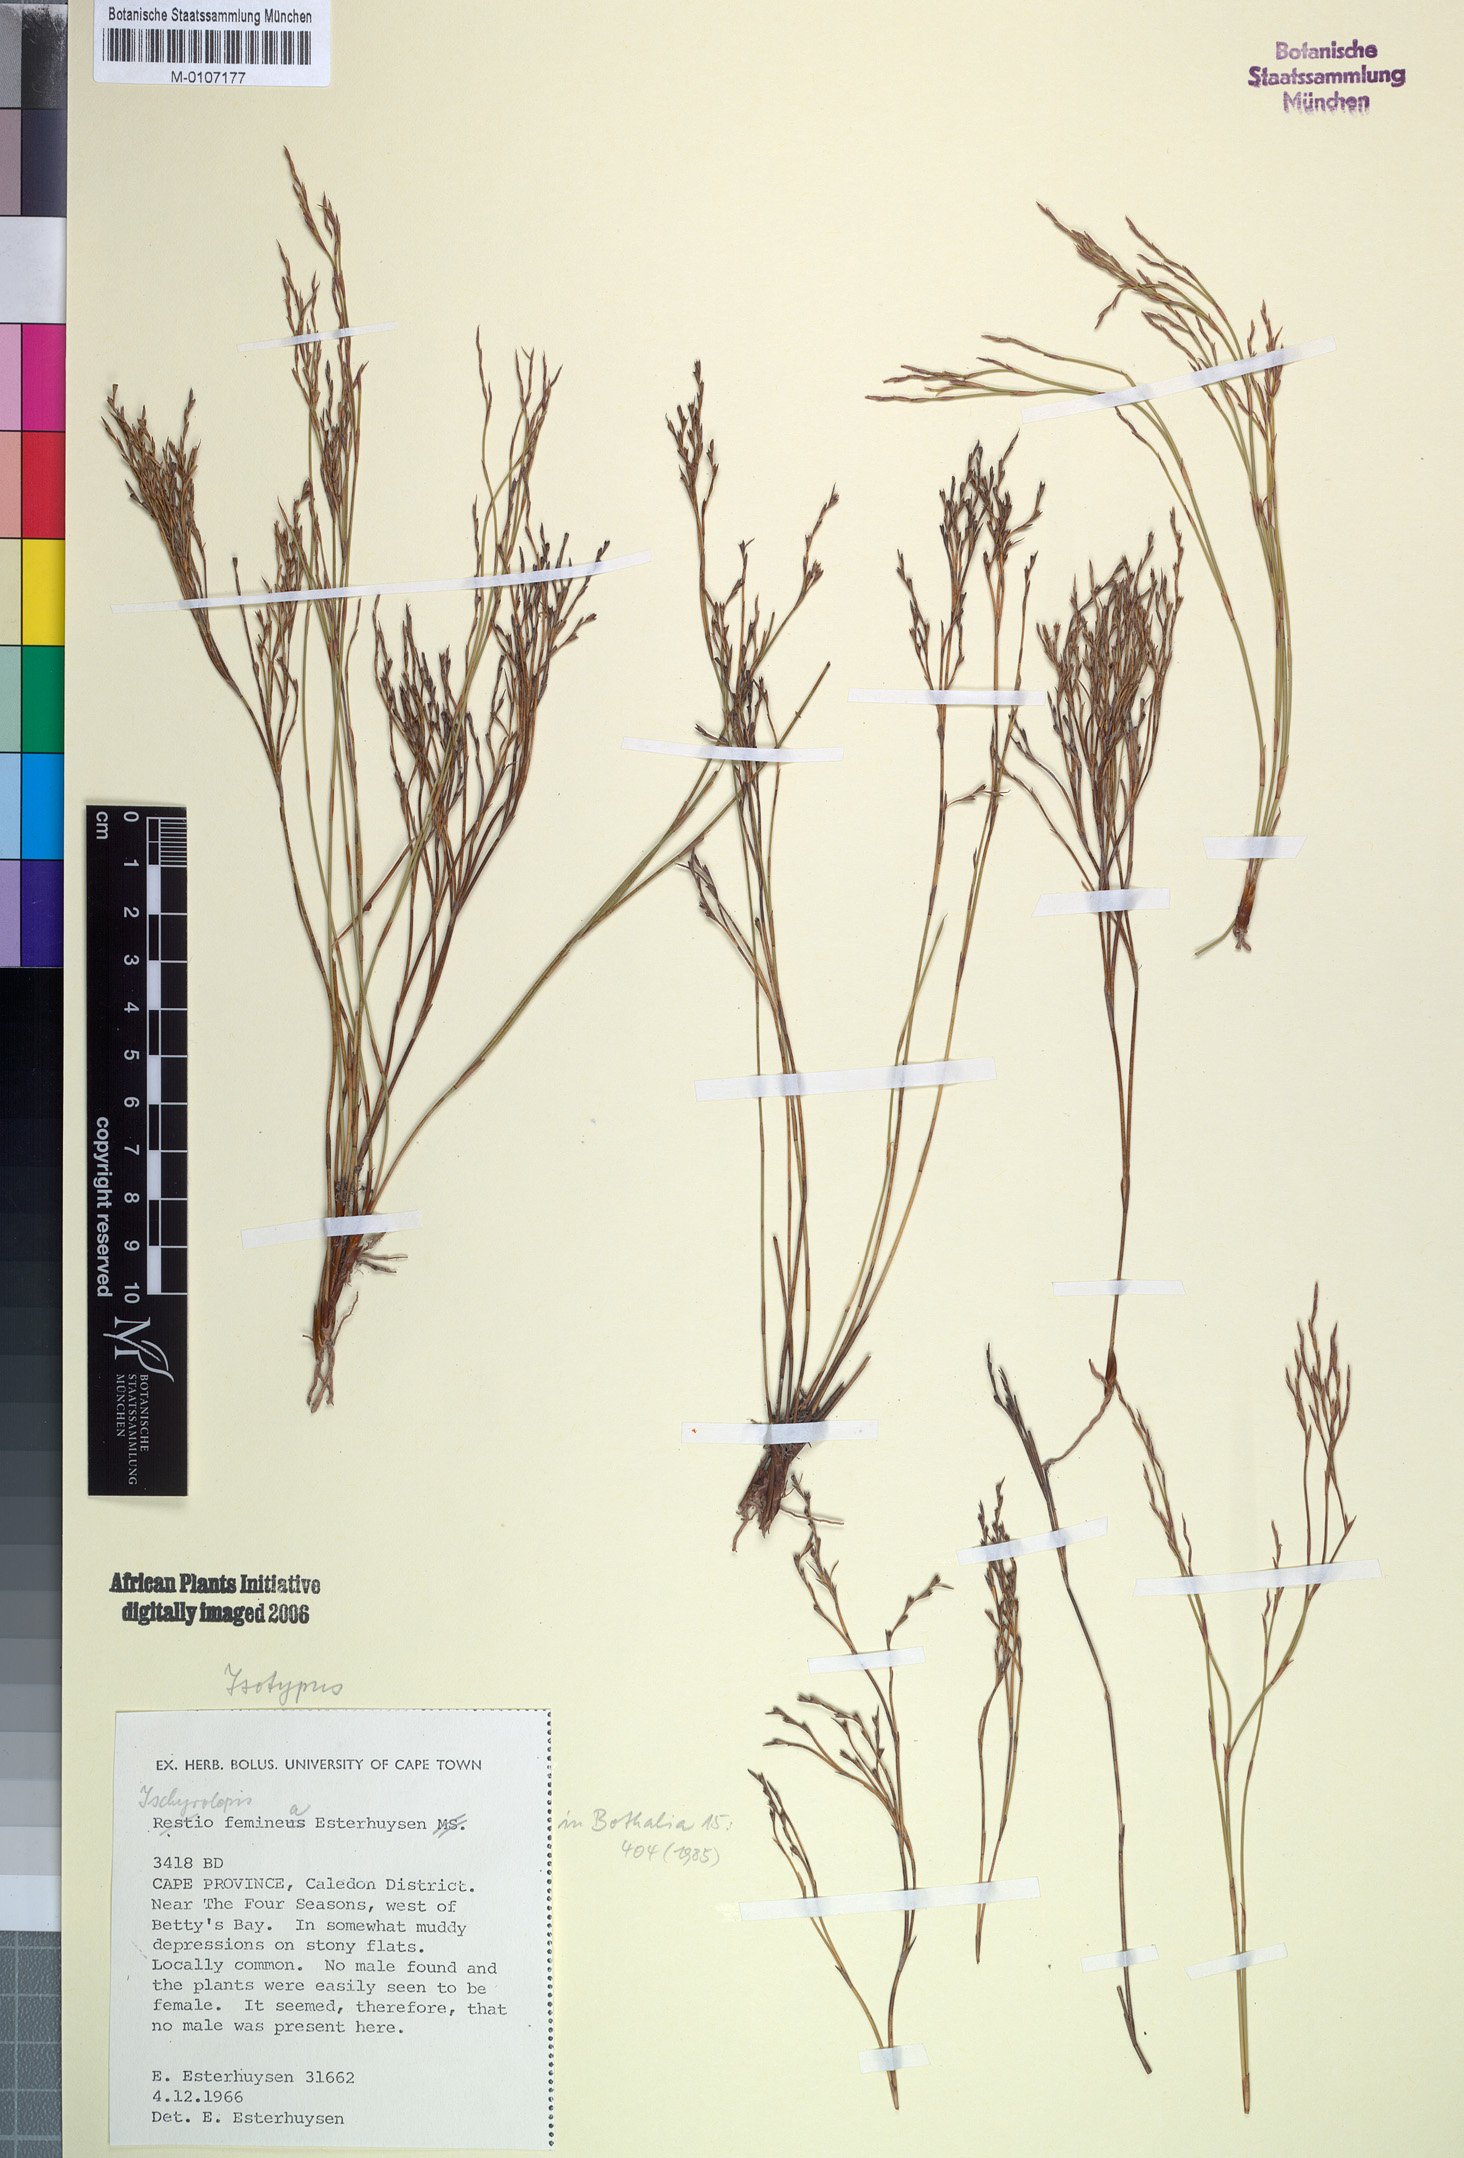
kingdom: Plantae
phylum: Tracheophyta
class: Liliopsida
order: Poales
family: Restionaceae
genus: Restio
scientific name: Restio femineus
